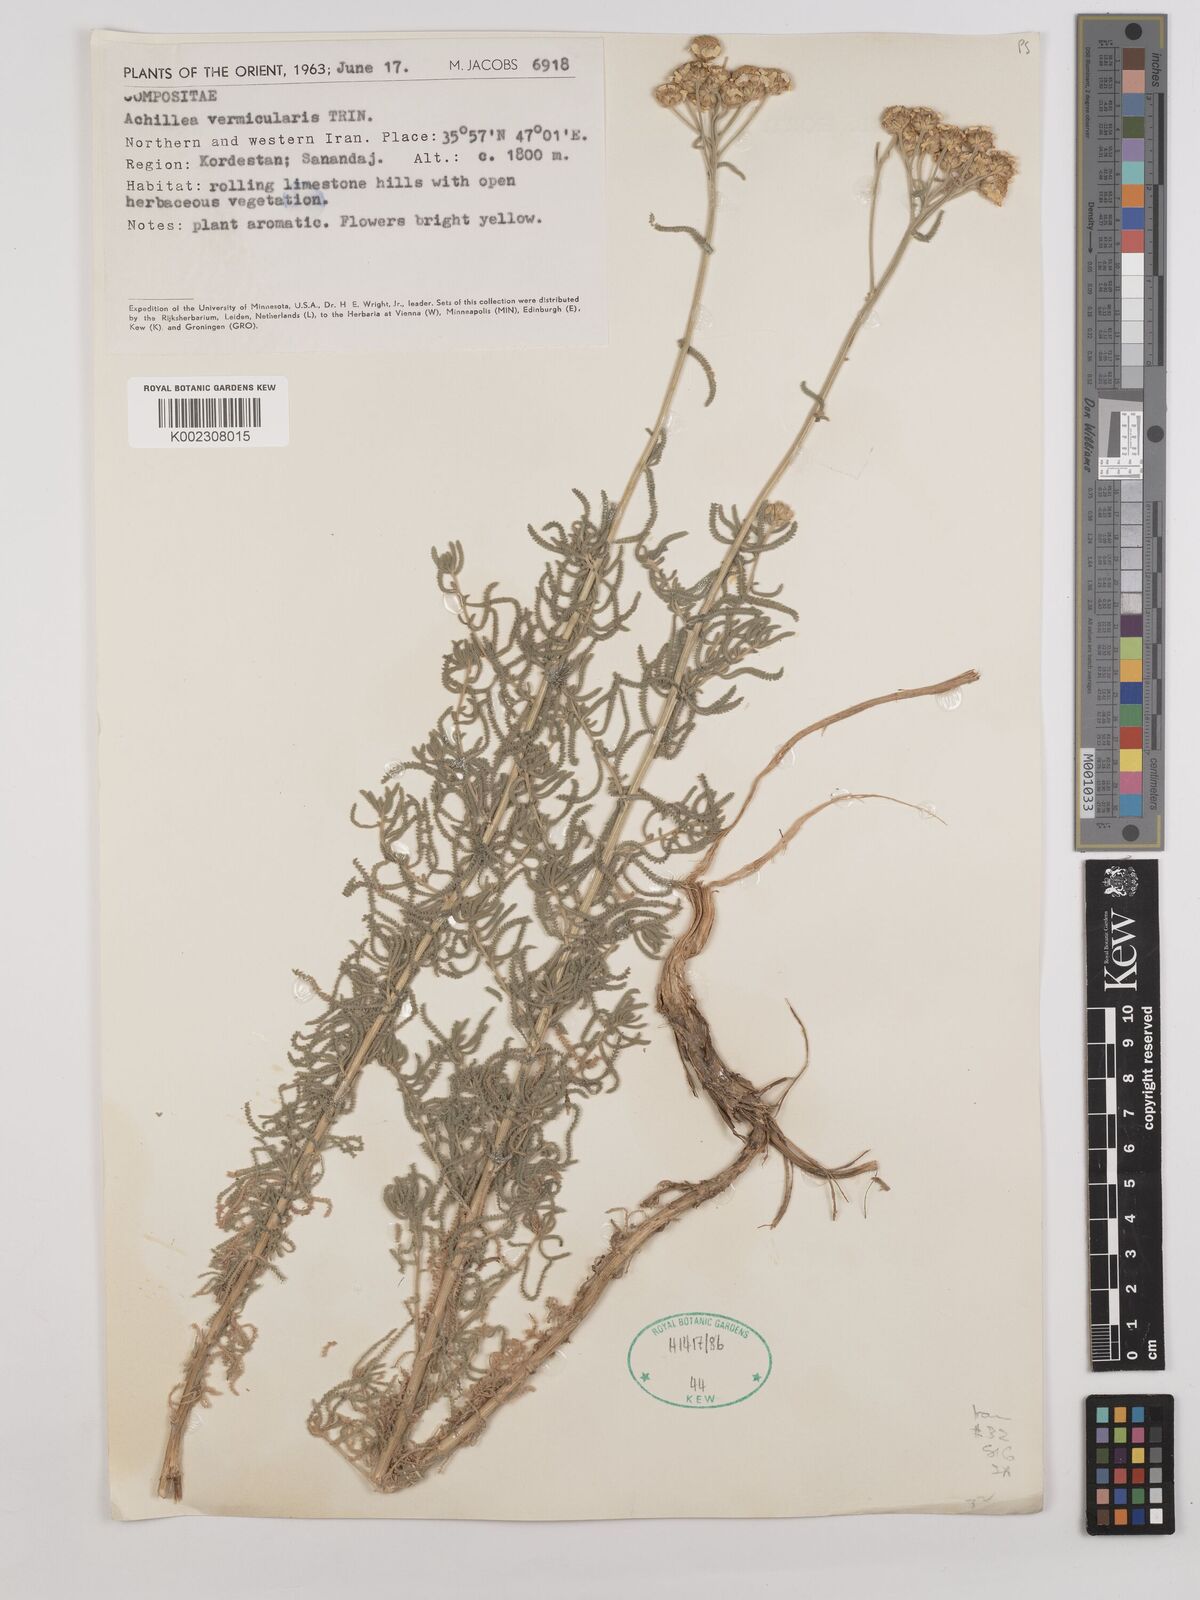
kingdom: Plantae
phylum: Tracheophyta
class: Magnoliopsida
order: Asterales
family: Asteraceae
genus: Achillea
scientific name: Achillea vermicularis
